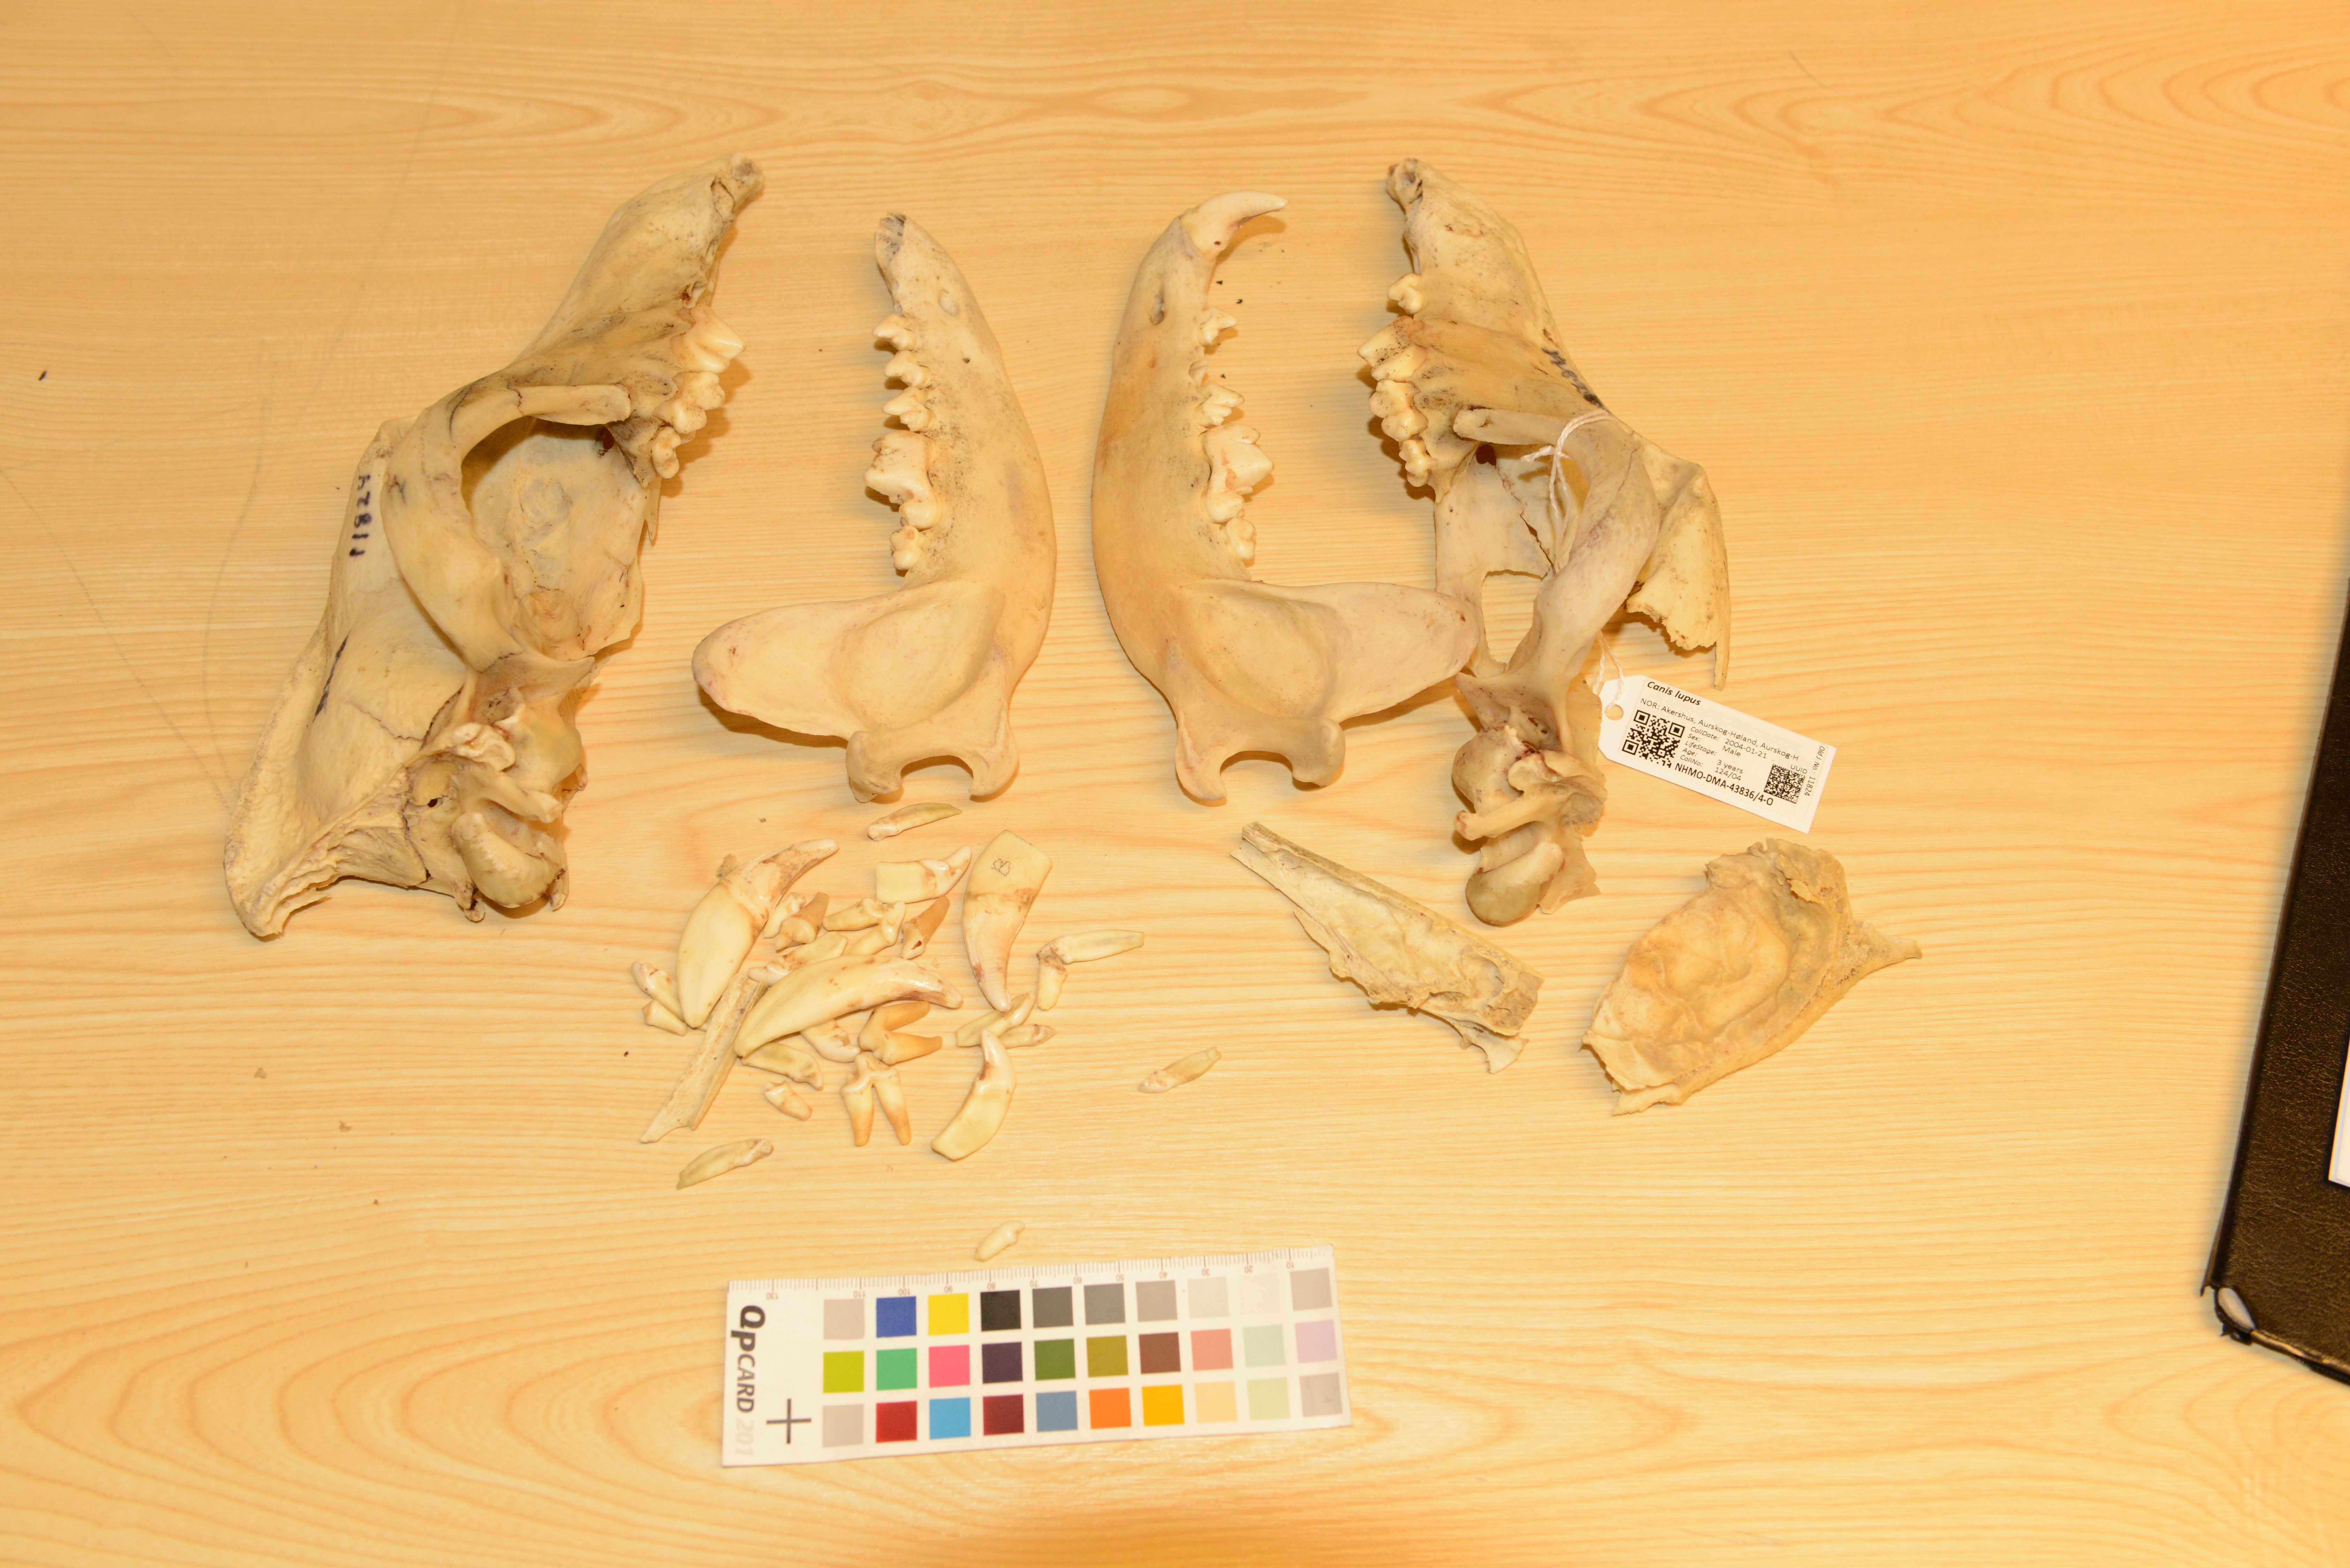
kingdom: Animalia
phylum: Chordata
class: Mammalia
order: Carnivora
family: Canidae
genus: Canis
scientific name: Canis lupus
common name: Gray wolf
